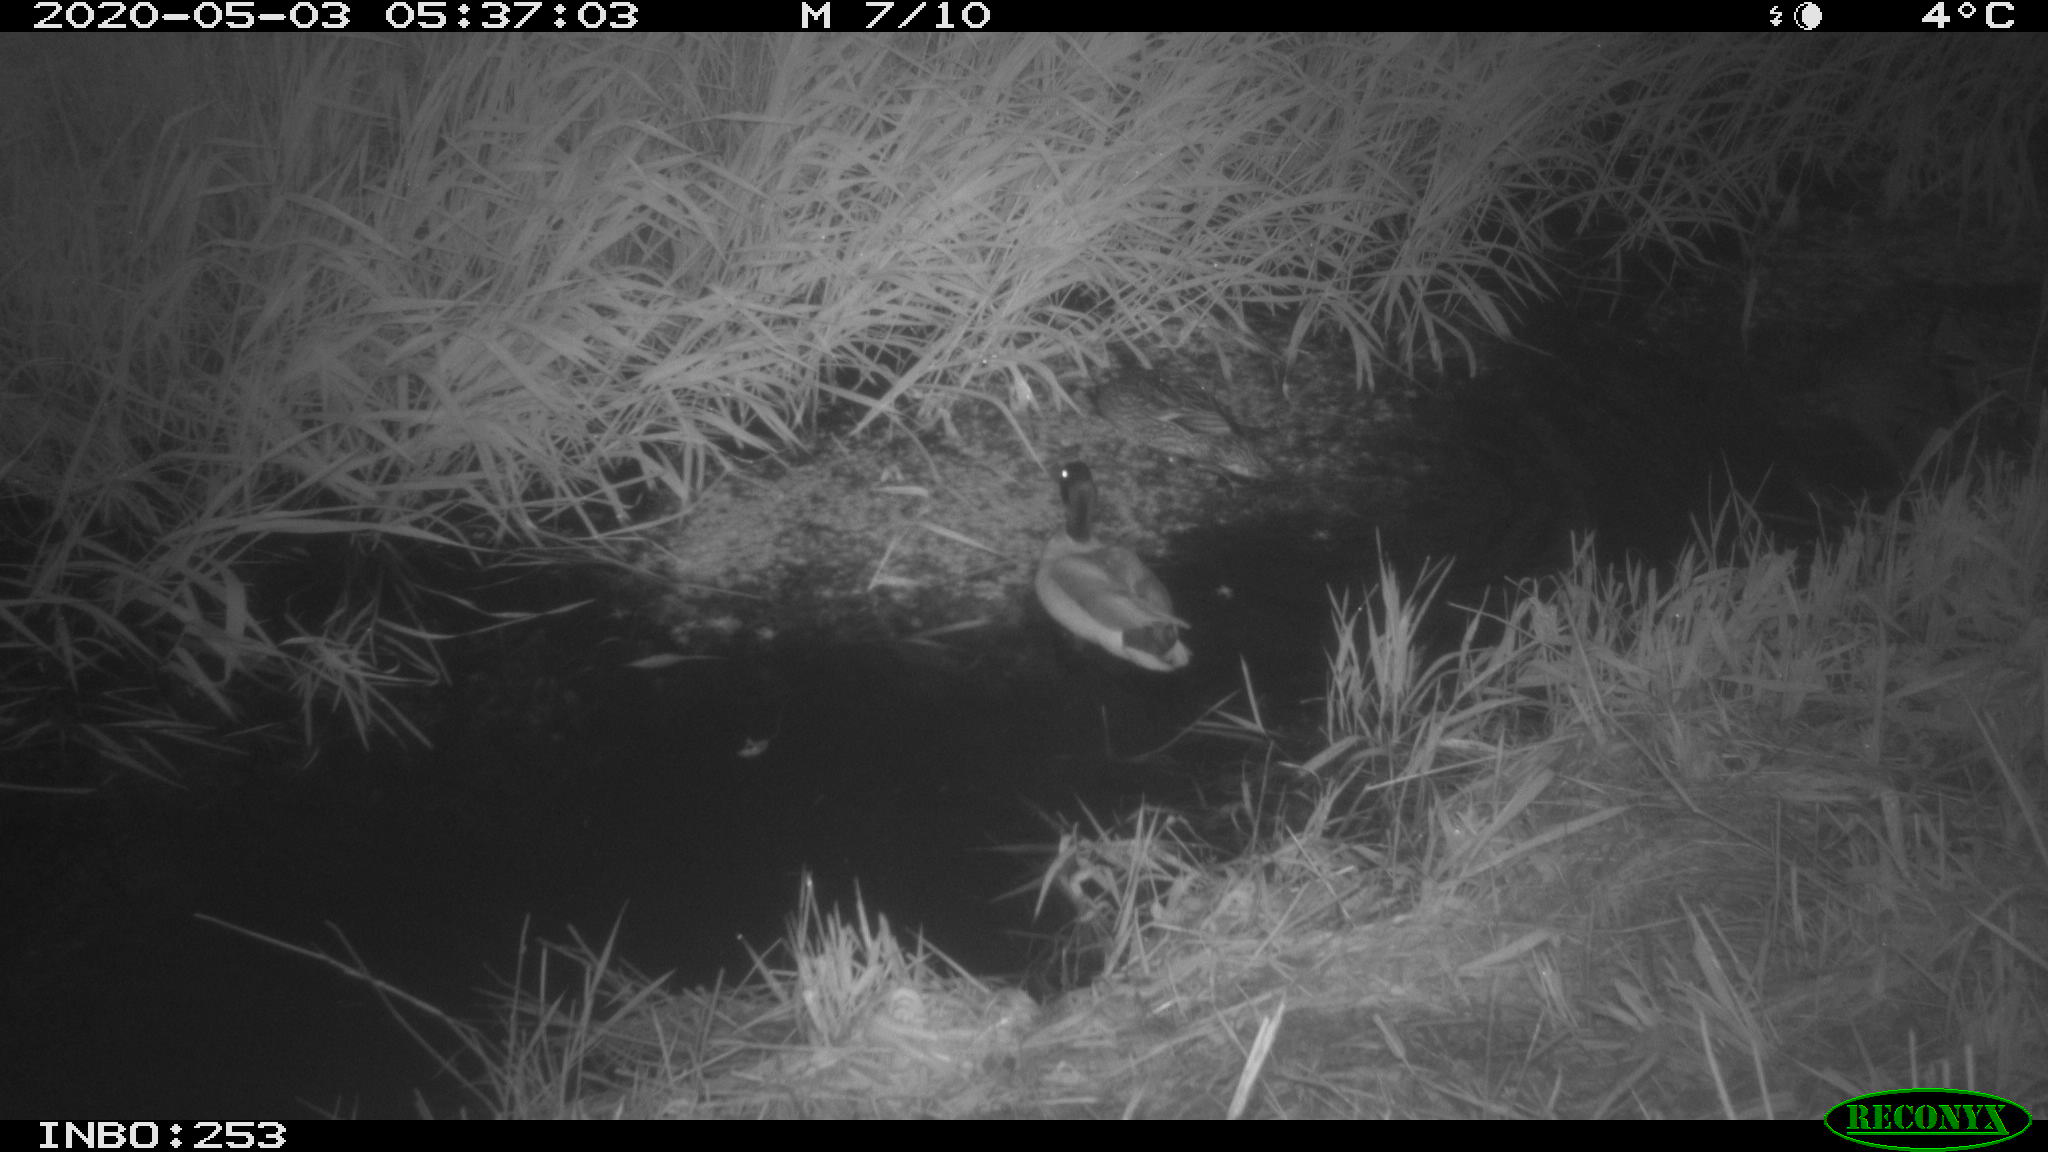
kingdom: Animalia
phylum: Chordata
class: Aves
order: Anseriformes
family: Anatidae
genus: Anas
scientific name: Anas platyrhynchos
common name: Mallard
